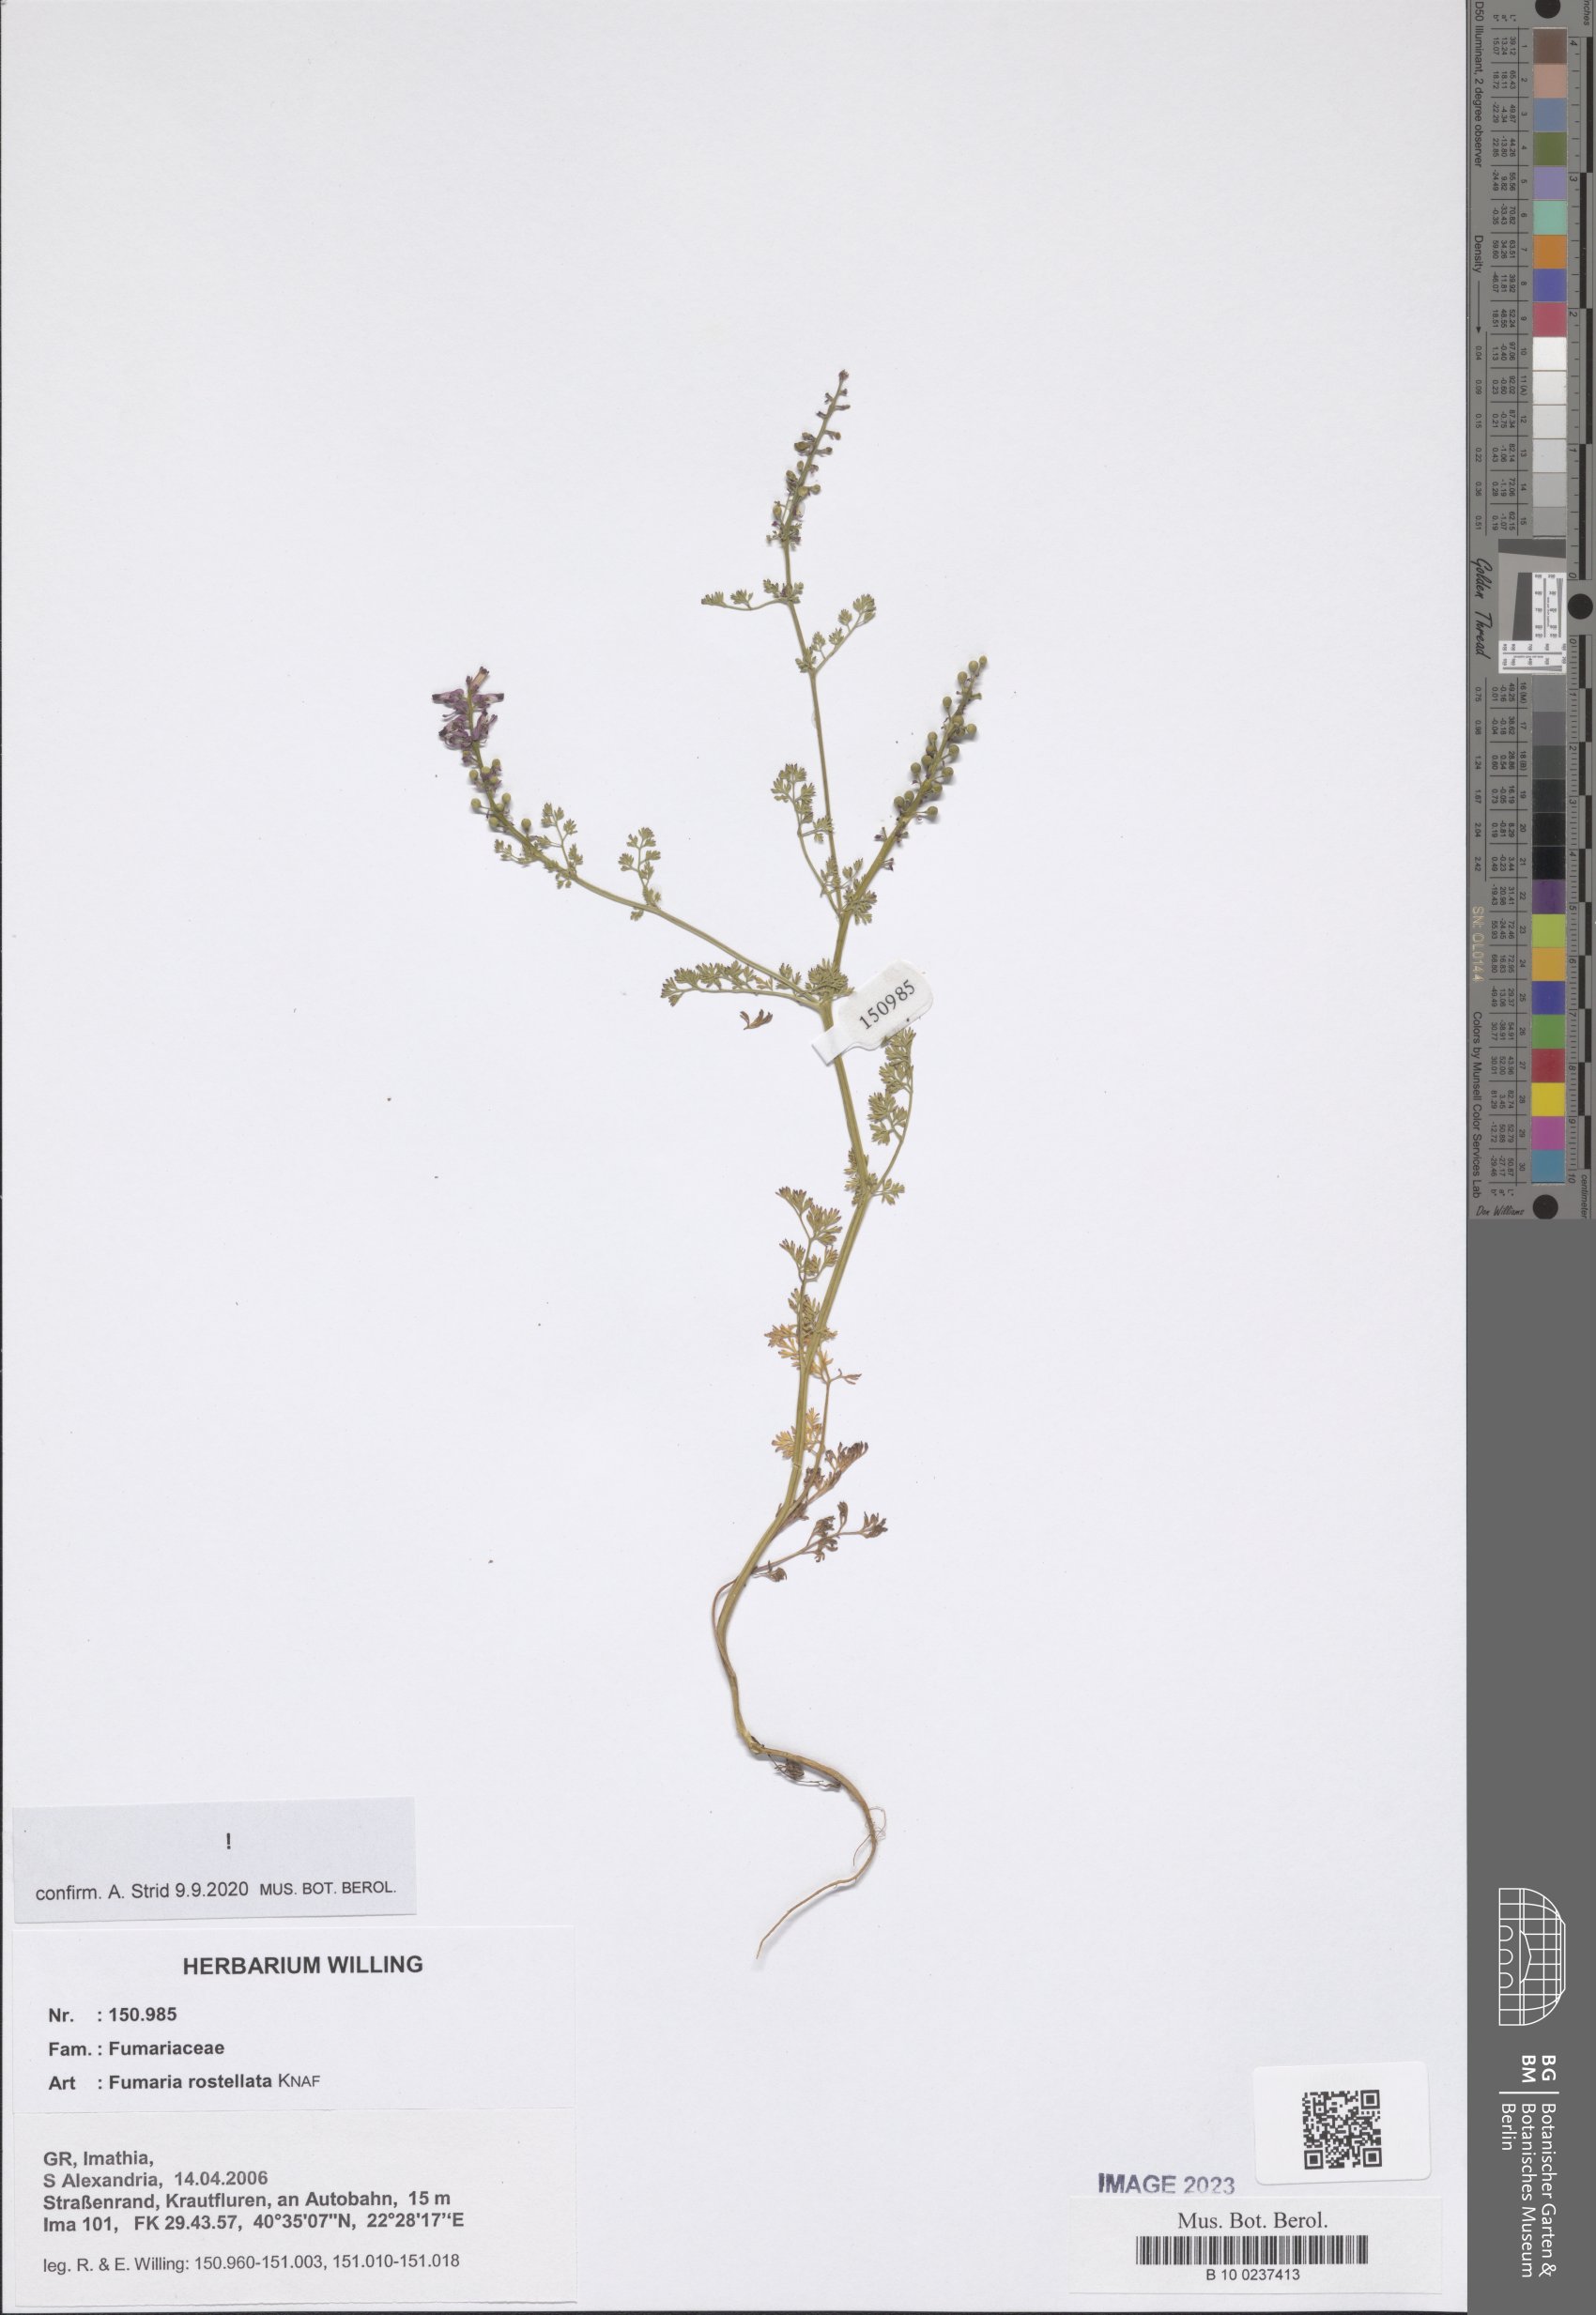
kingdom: Plantae
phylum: Tracheophyta
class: Magnoliopsida
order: Ranunculales
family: Papaveraceae
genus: Fumaria
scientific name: Fumaria rostellata
